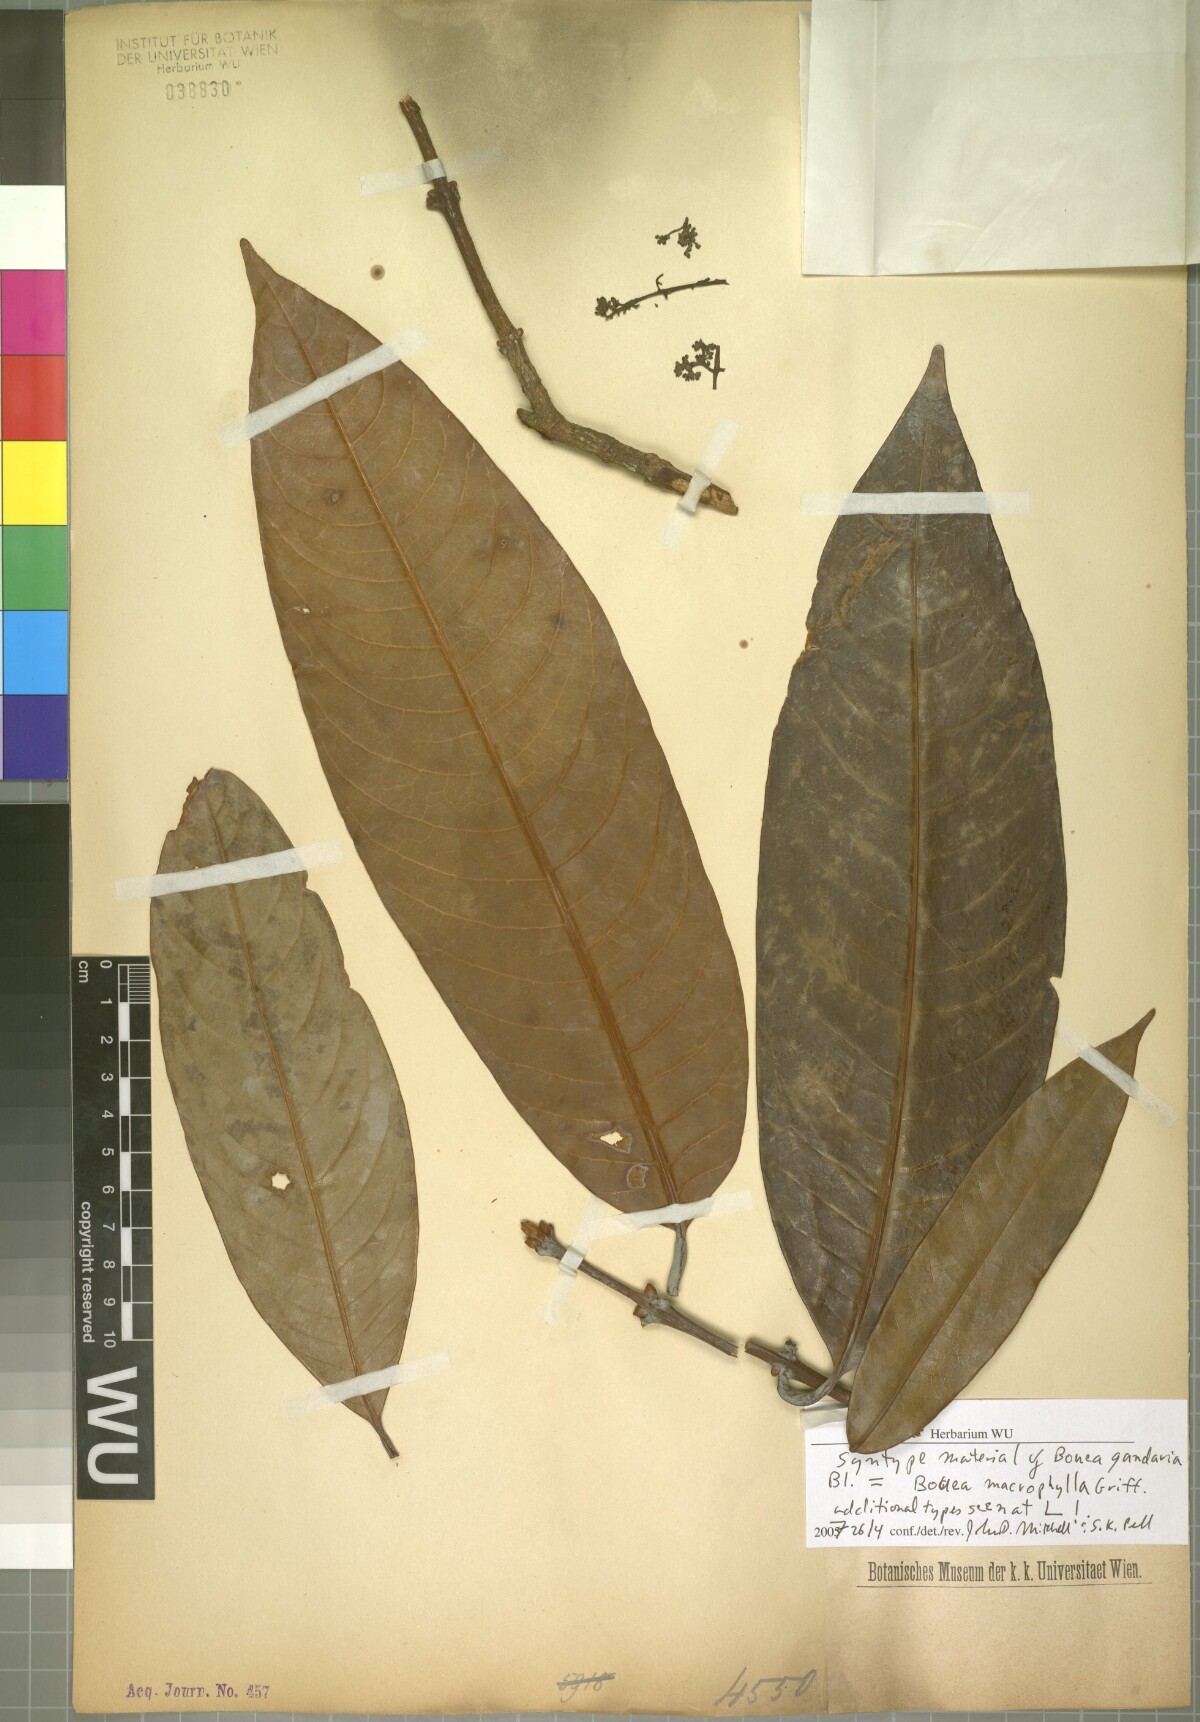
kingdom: Plantae
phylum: Tracheophyta
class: Magnoliopsida
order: Sapindales
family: Anacardiaceae
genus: Bouea
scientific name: Bouea macrophylla
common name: Gandaria
